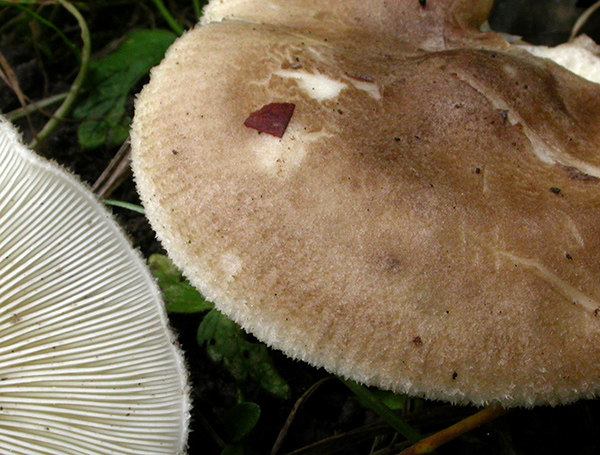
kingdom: Fungi
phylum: Basidiomycota
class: Agaricomycetes
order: Agaricales
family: Pseudoclitocybaceae
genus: Pogonoloma
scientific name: Pogonoloma spinulosum
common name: duftende alfehat
